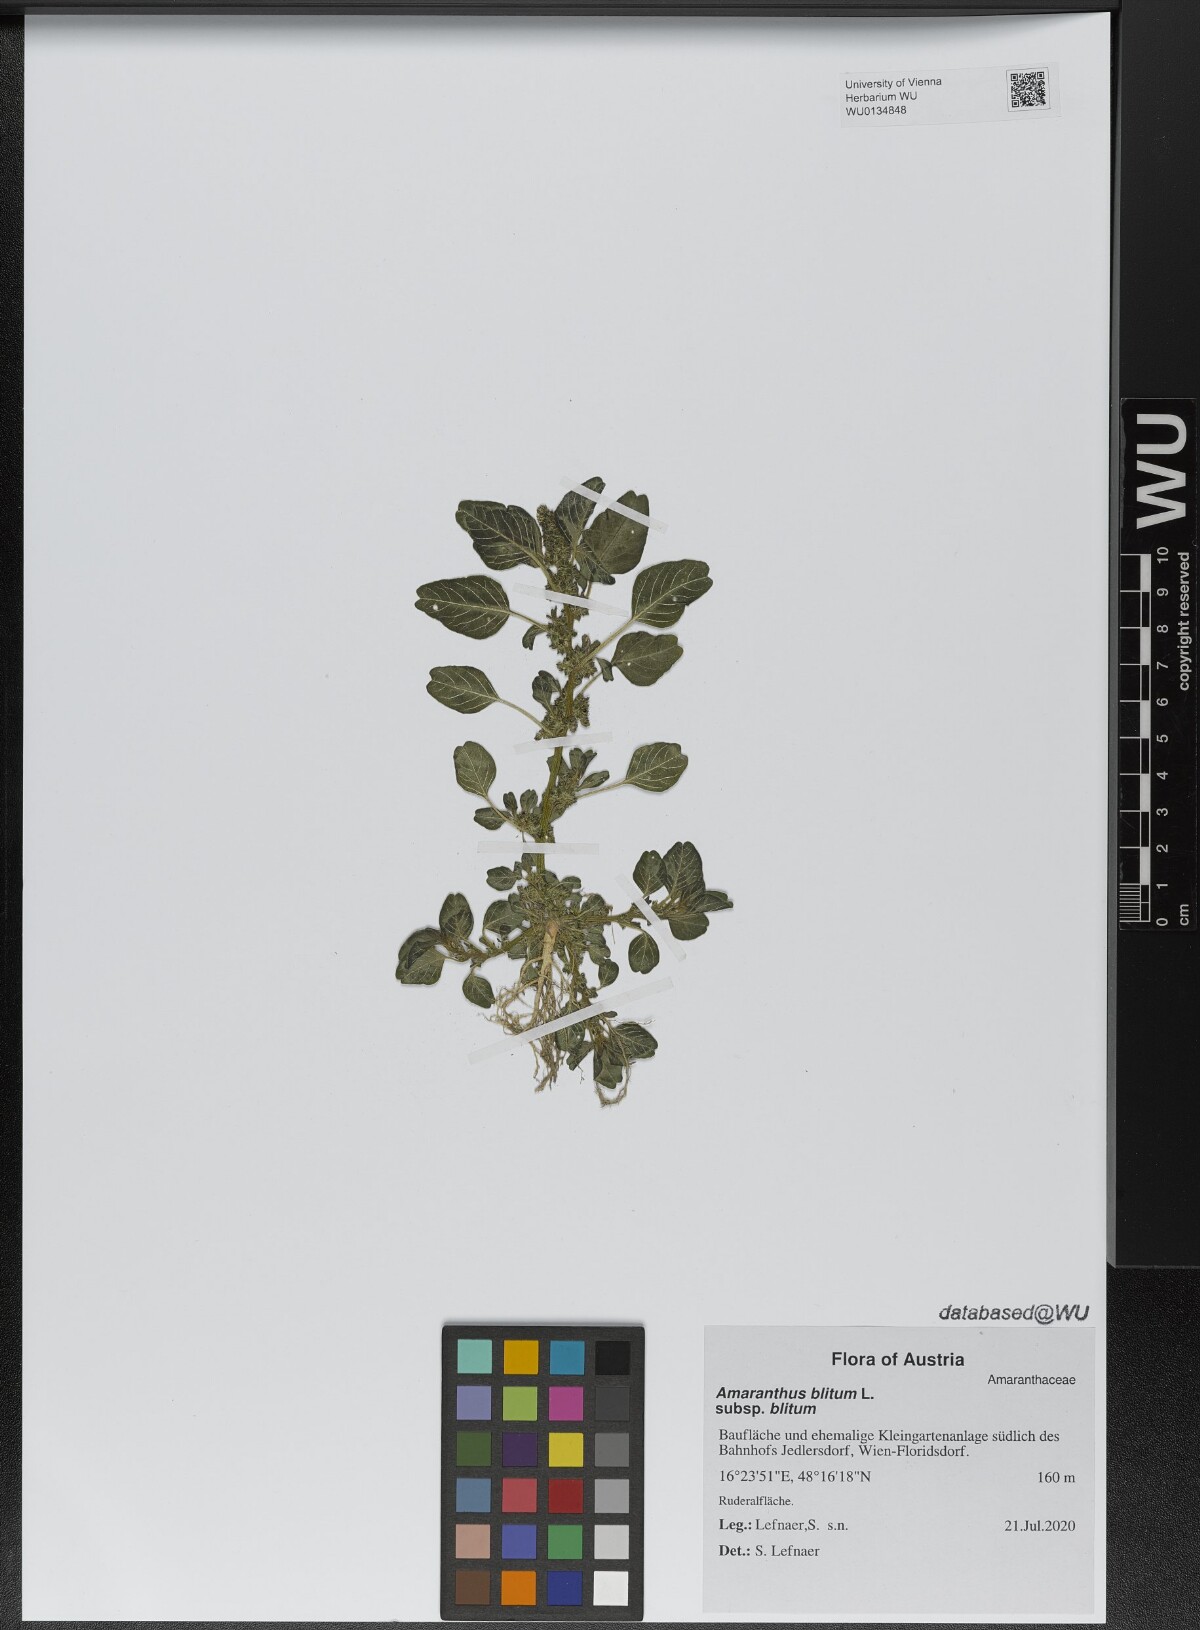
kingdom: Plantae
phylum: Tracheophyta
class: Magnoliopsida
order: Caryophyllales
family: Amaranthaceae
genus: Amaranthus
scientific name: Amaranthus blitum
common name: Purple amaranth
